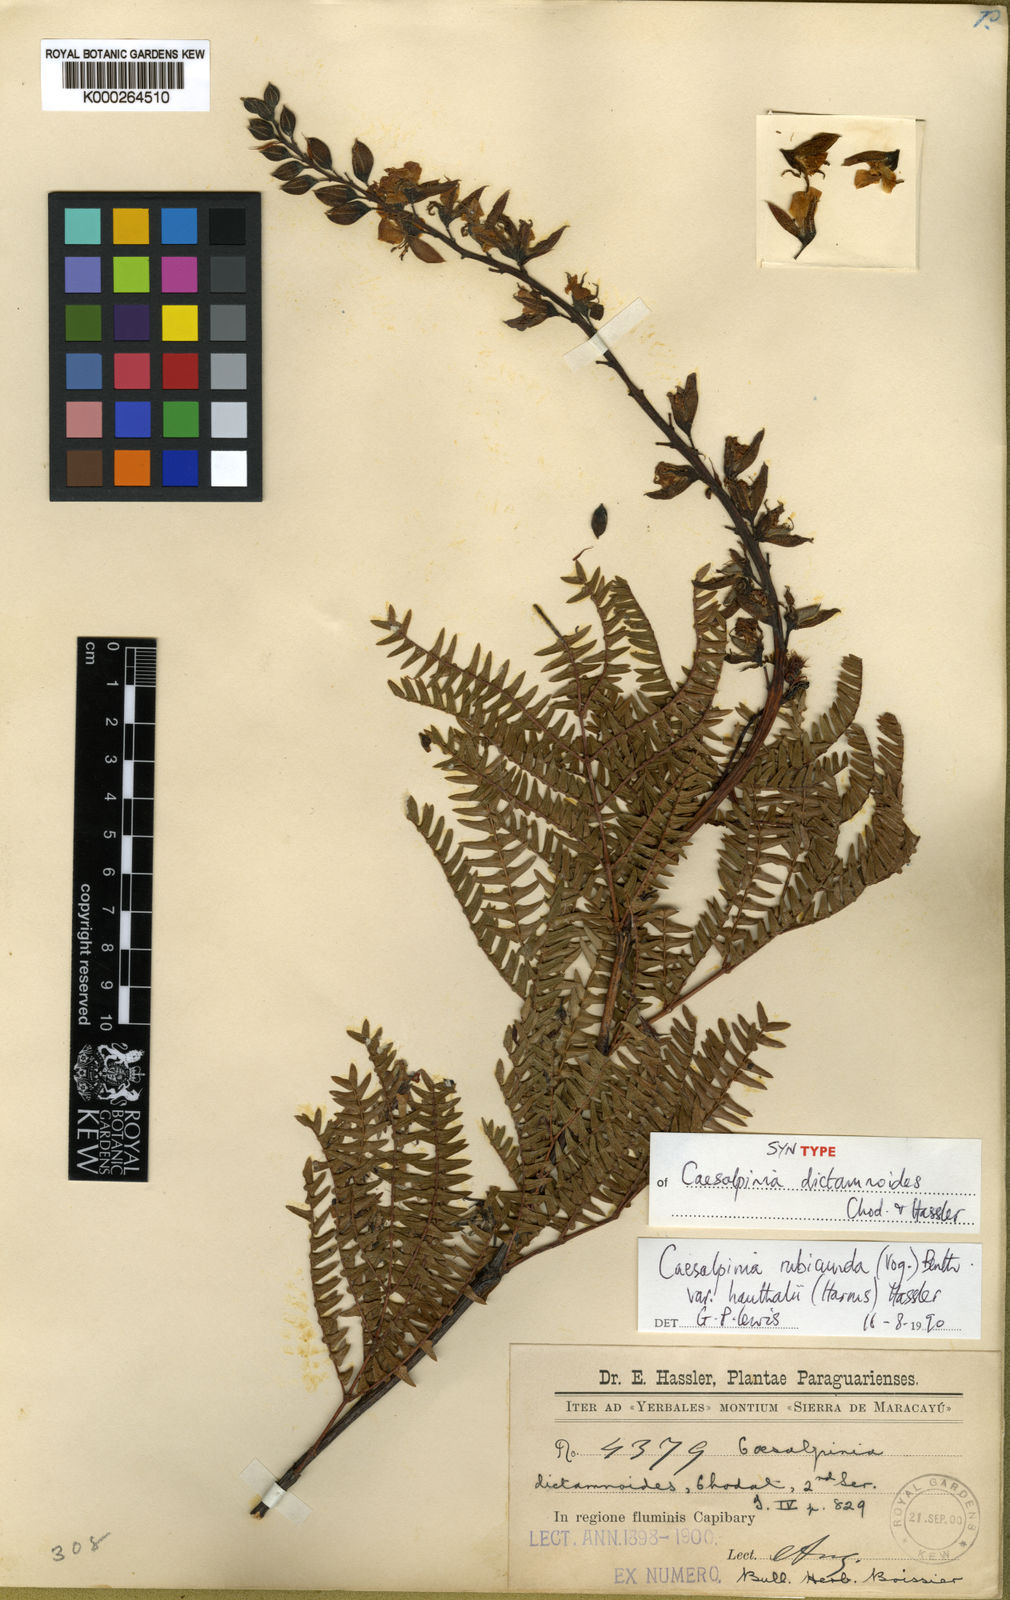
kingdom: Plantae
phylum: Tracheophyta
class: Magnoliopsida
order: Fabales
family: Fabaceae
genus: Pomaria
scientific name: Pomaria rubicunda
